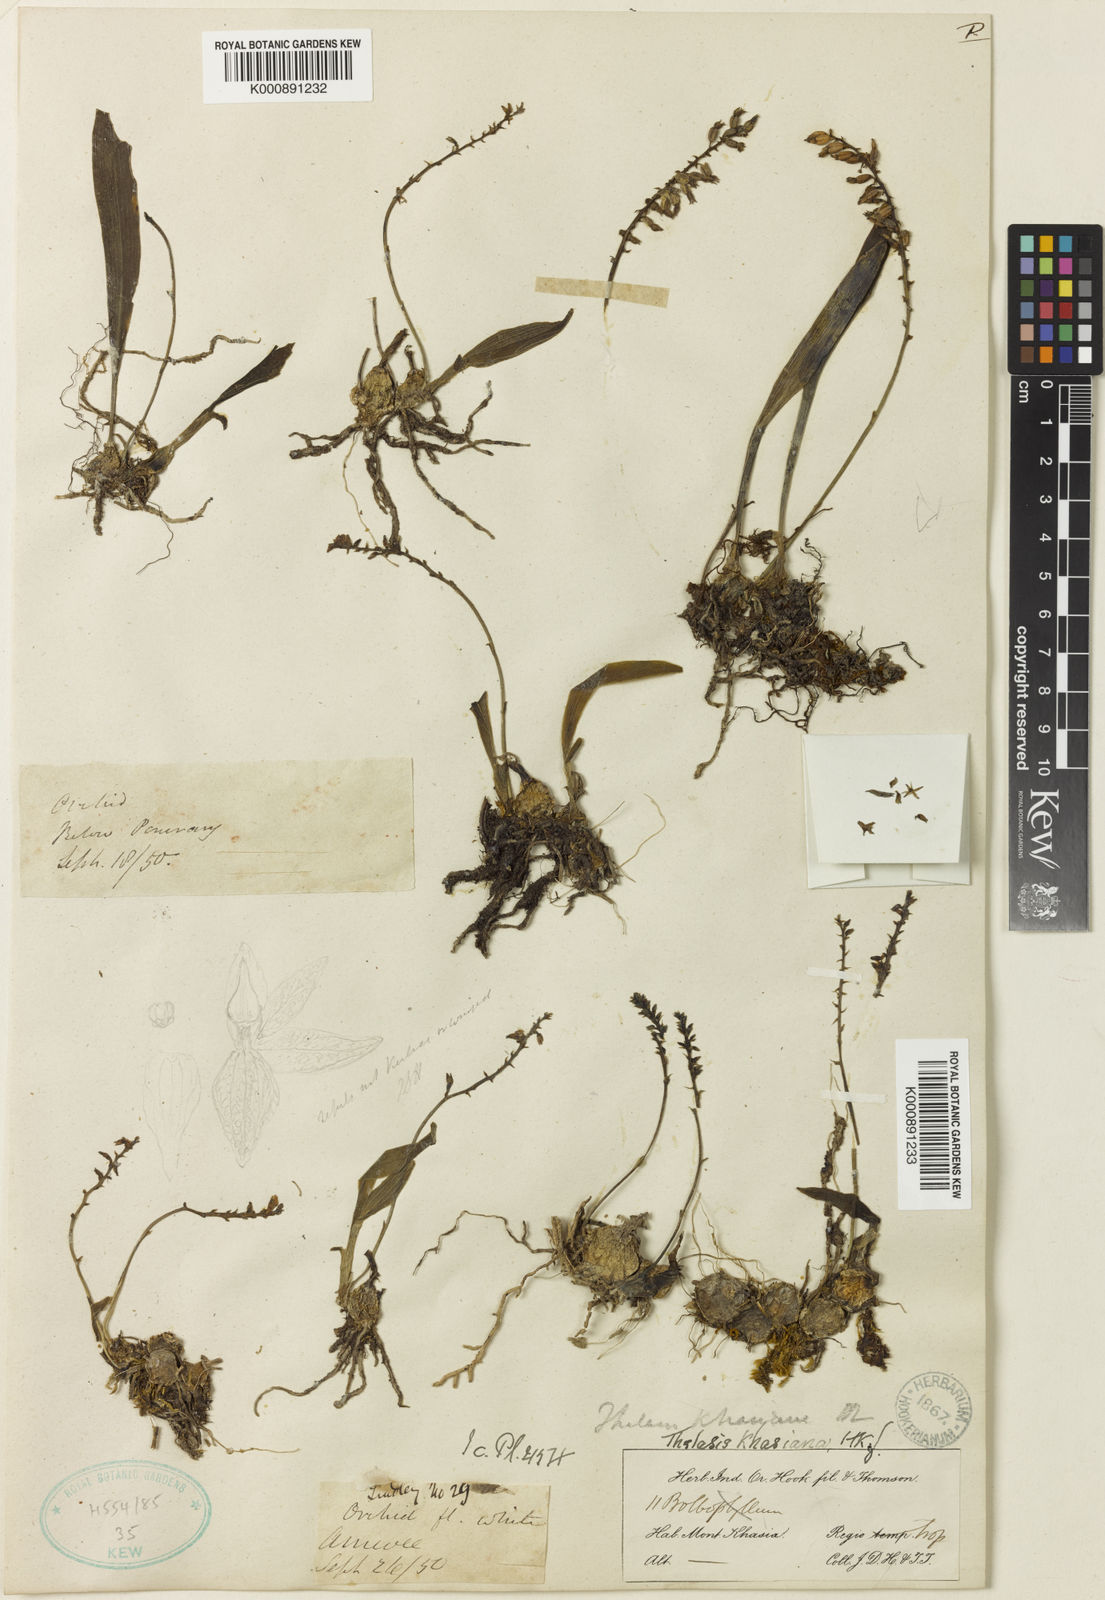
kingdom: Plantae
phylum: Tracheophyta
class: Liliopsida
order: Asparagales
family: Orchidaceae
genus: Thelasis
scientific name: Thelasis khasiana
